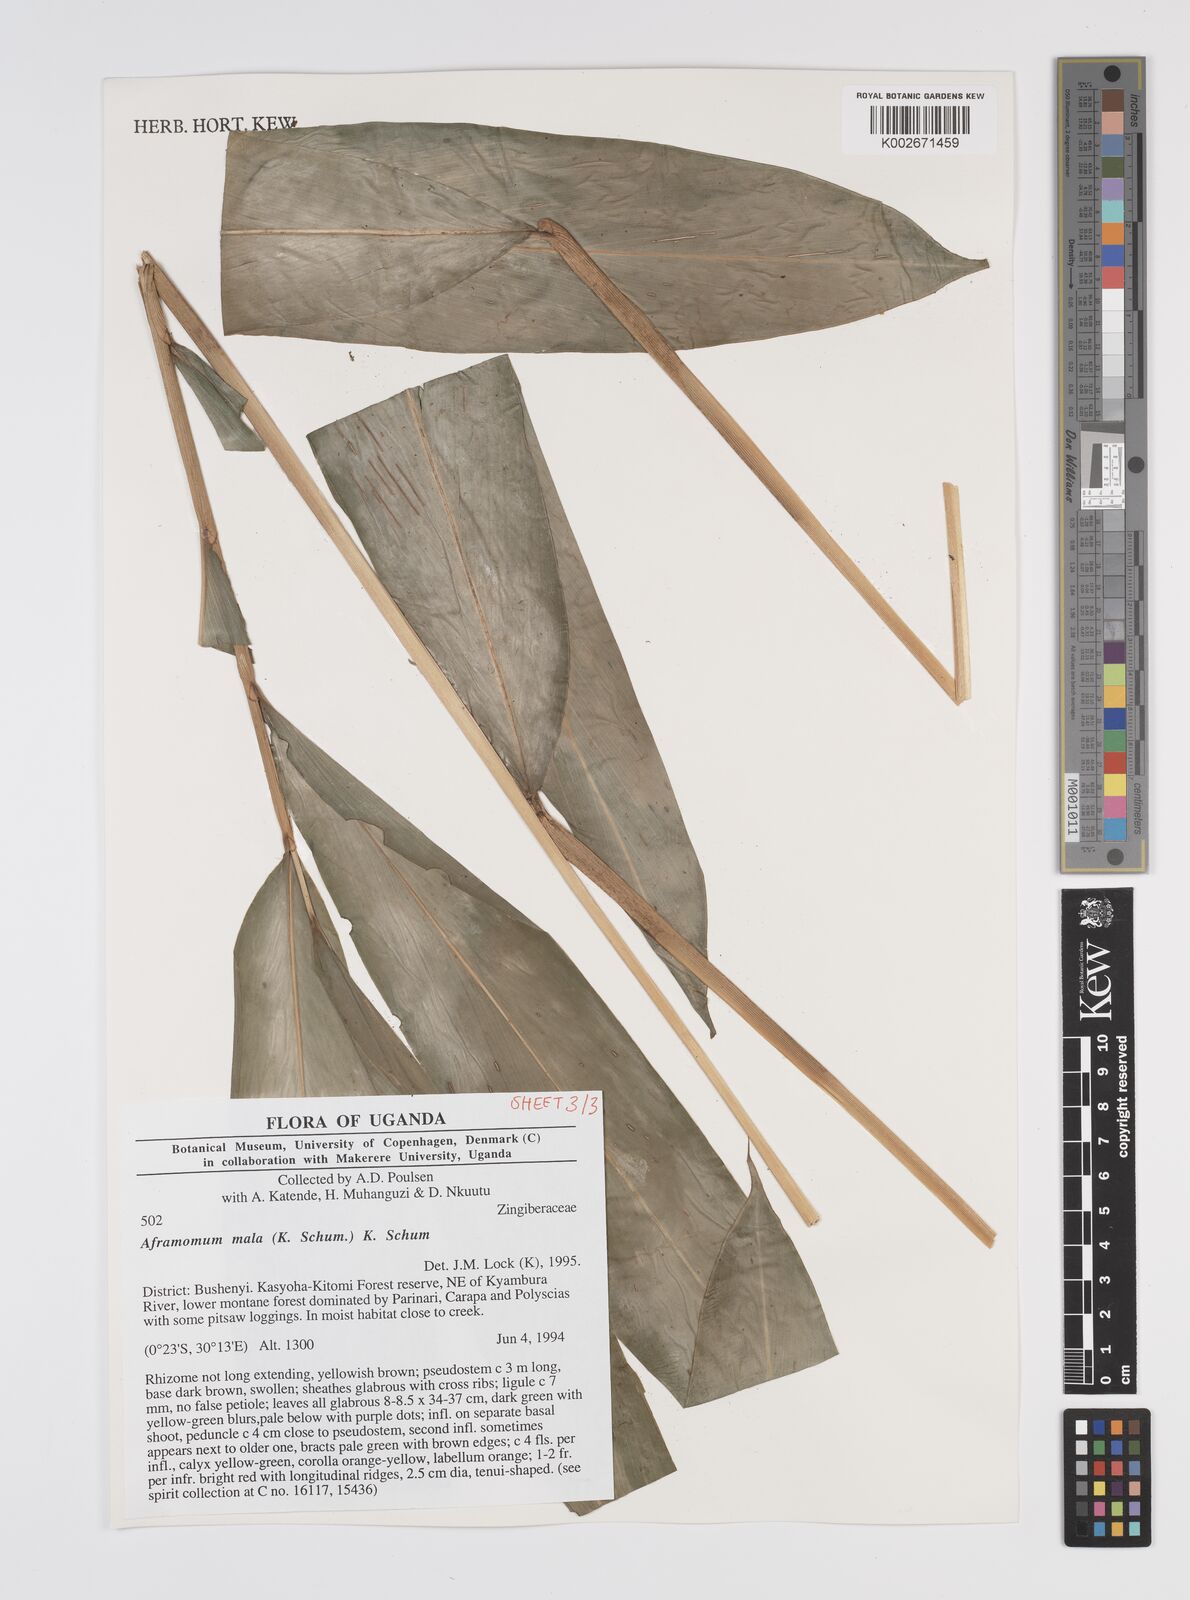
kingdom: Plantae
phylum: Tracheophyta
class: Liliopsida
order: Zingiberales
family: Zingiberaceae
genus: Aframomum
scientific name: Aframomum daniellii
